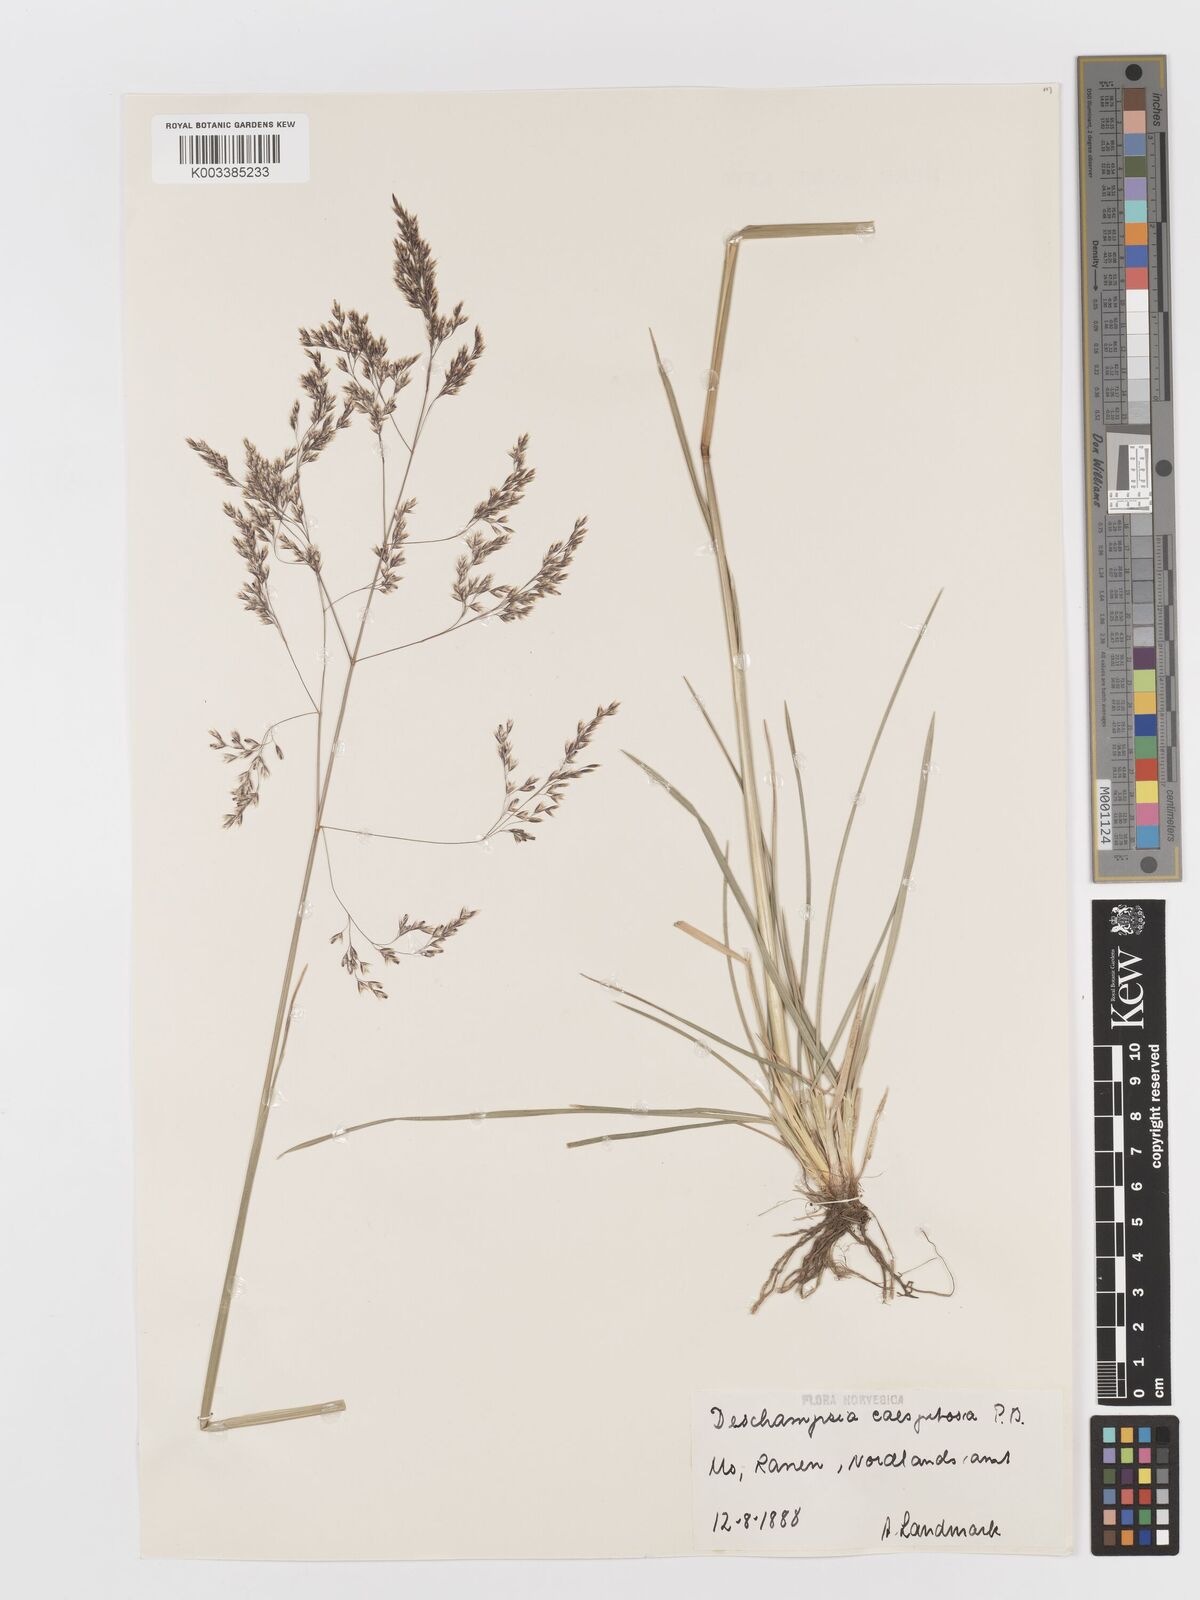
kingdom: Plantae
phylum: Tracheophyta
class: Liliopsida
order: Poales
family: Poaceae
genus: Deschampsia
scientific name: Deschampsia cespitosa
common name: Tufted hair-grass
